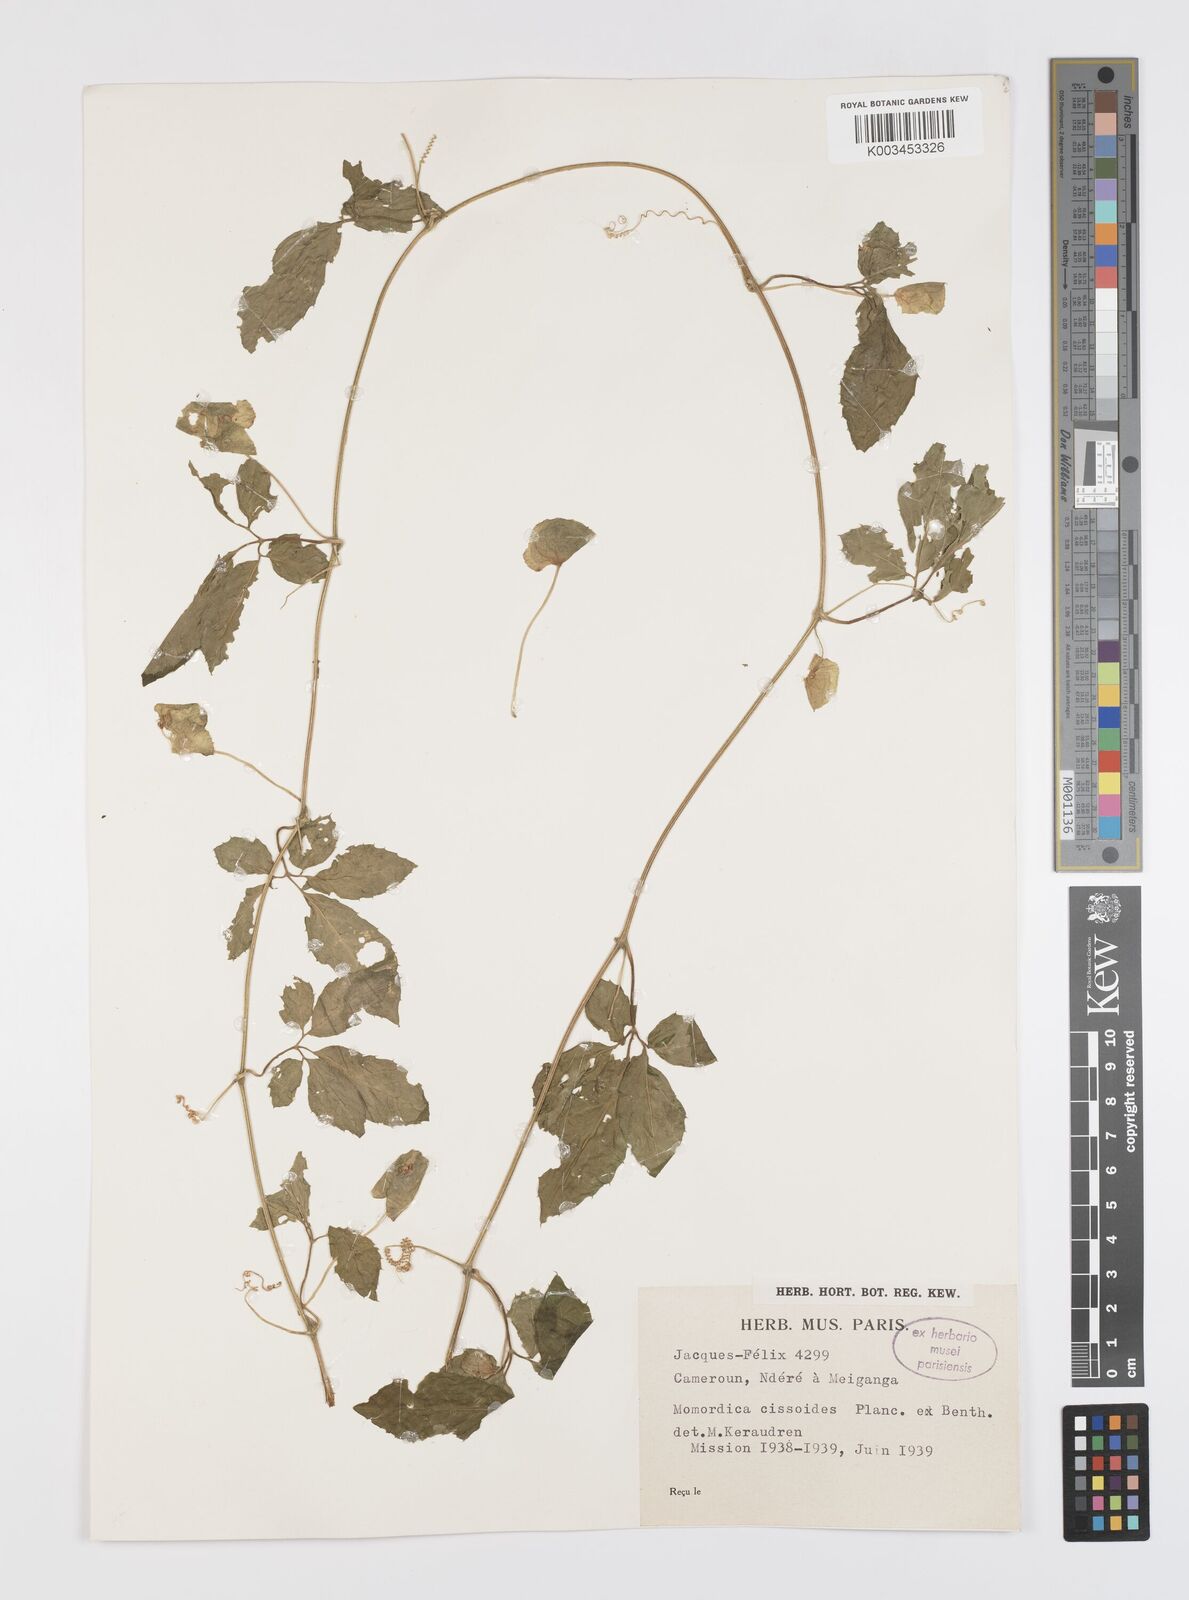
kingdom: Plantae
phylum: Tracheophyta
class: Magnoliopsida
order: Cucurbitales
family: Cucurbitaceae
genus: Momordica
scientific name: Momordica cissoides
